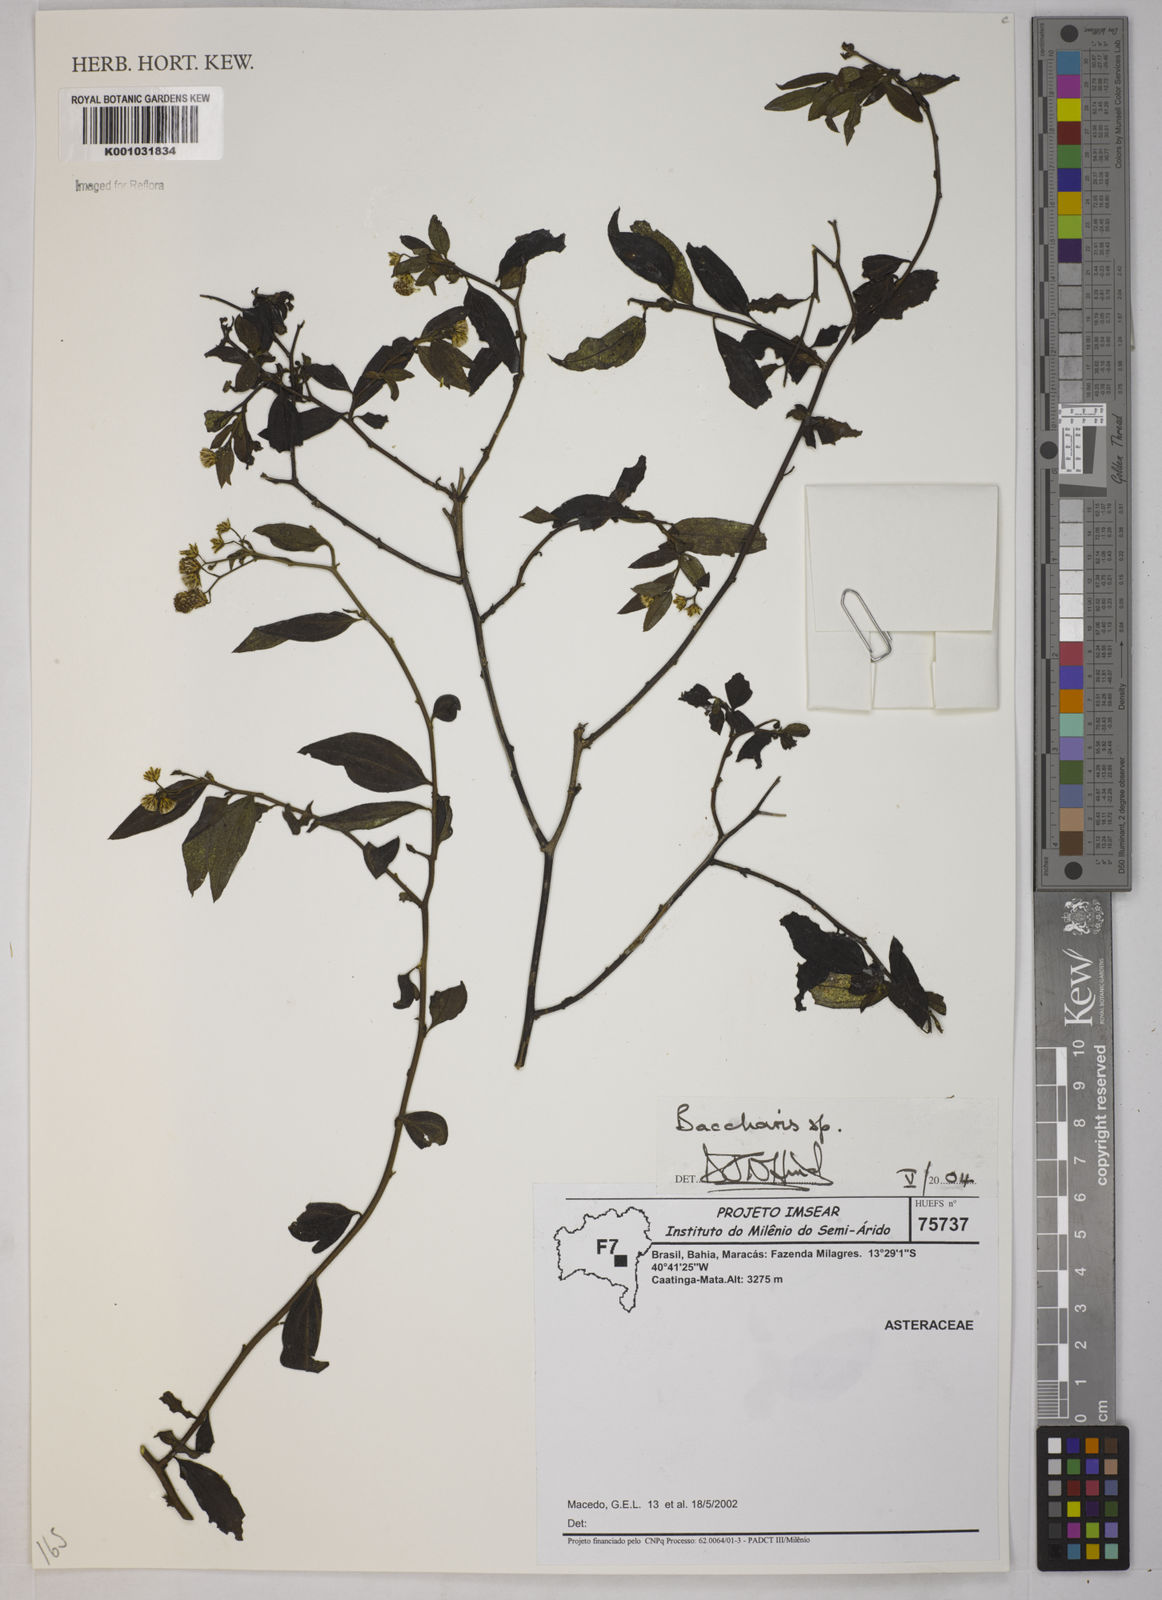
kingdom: Plantae
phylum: Tracheophyta
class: Magnoliopsida
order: Asterales
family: Asteraceae
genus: Baccharis
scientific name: Baccharis
